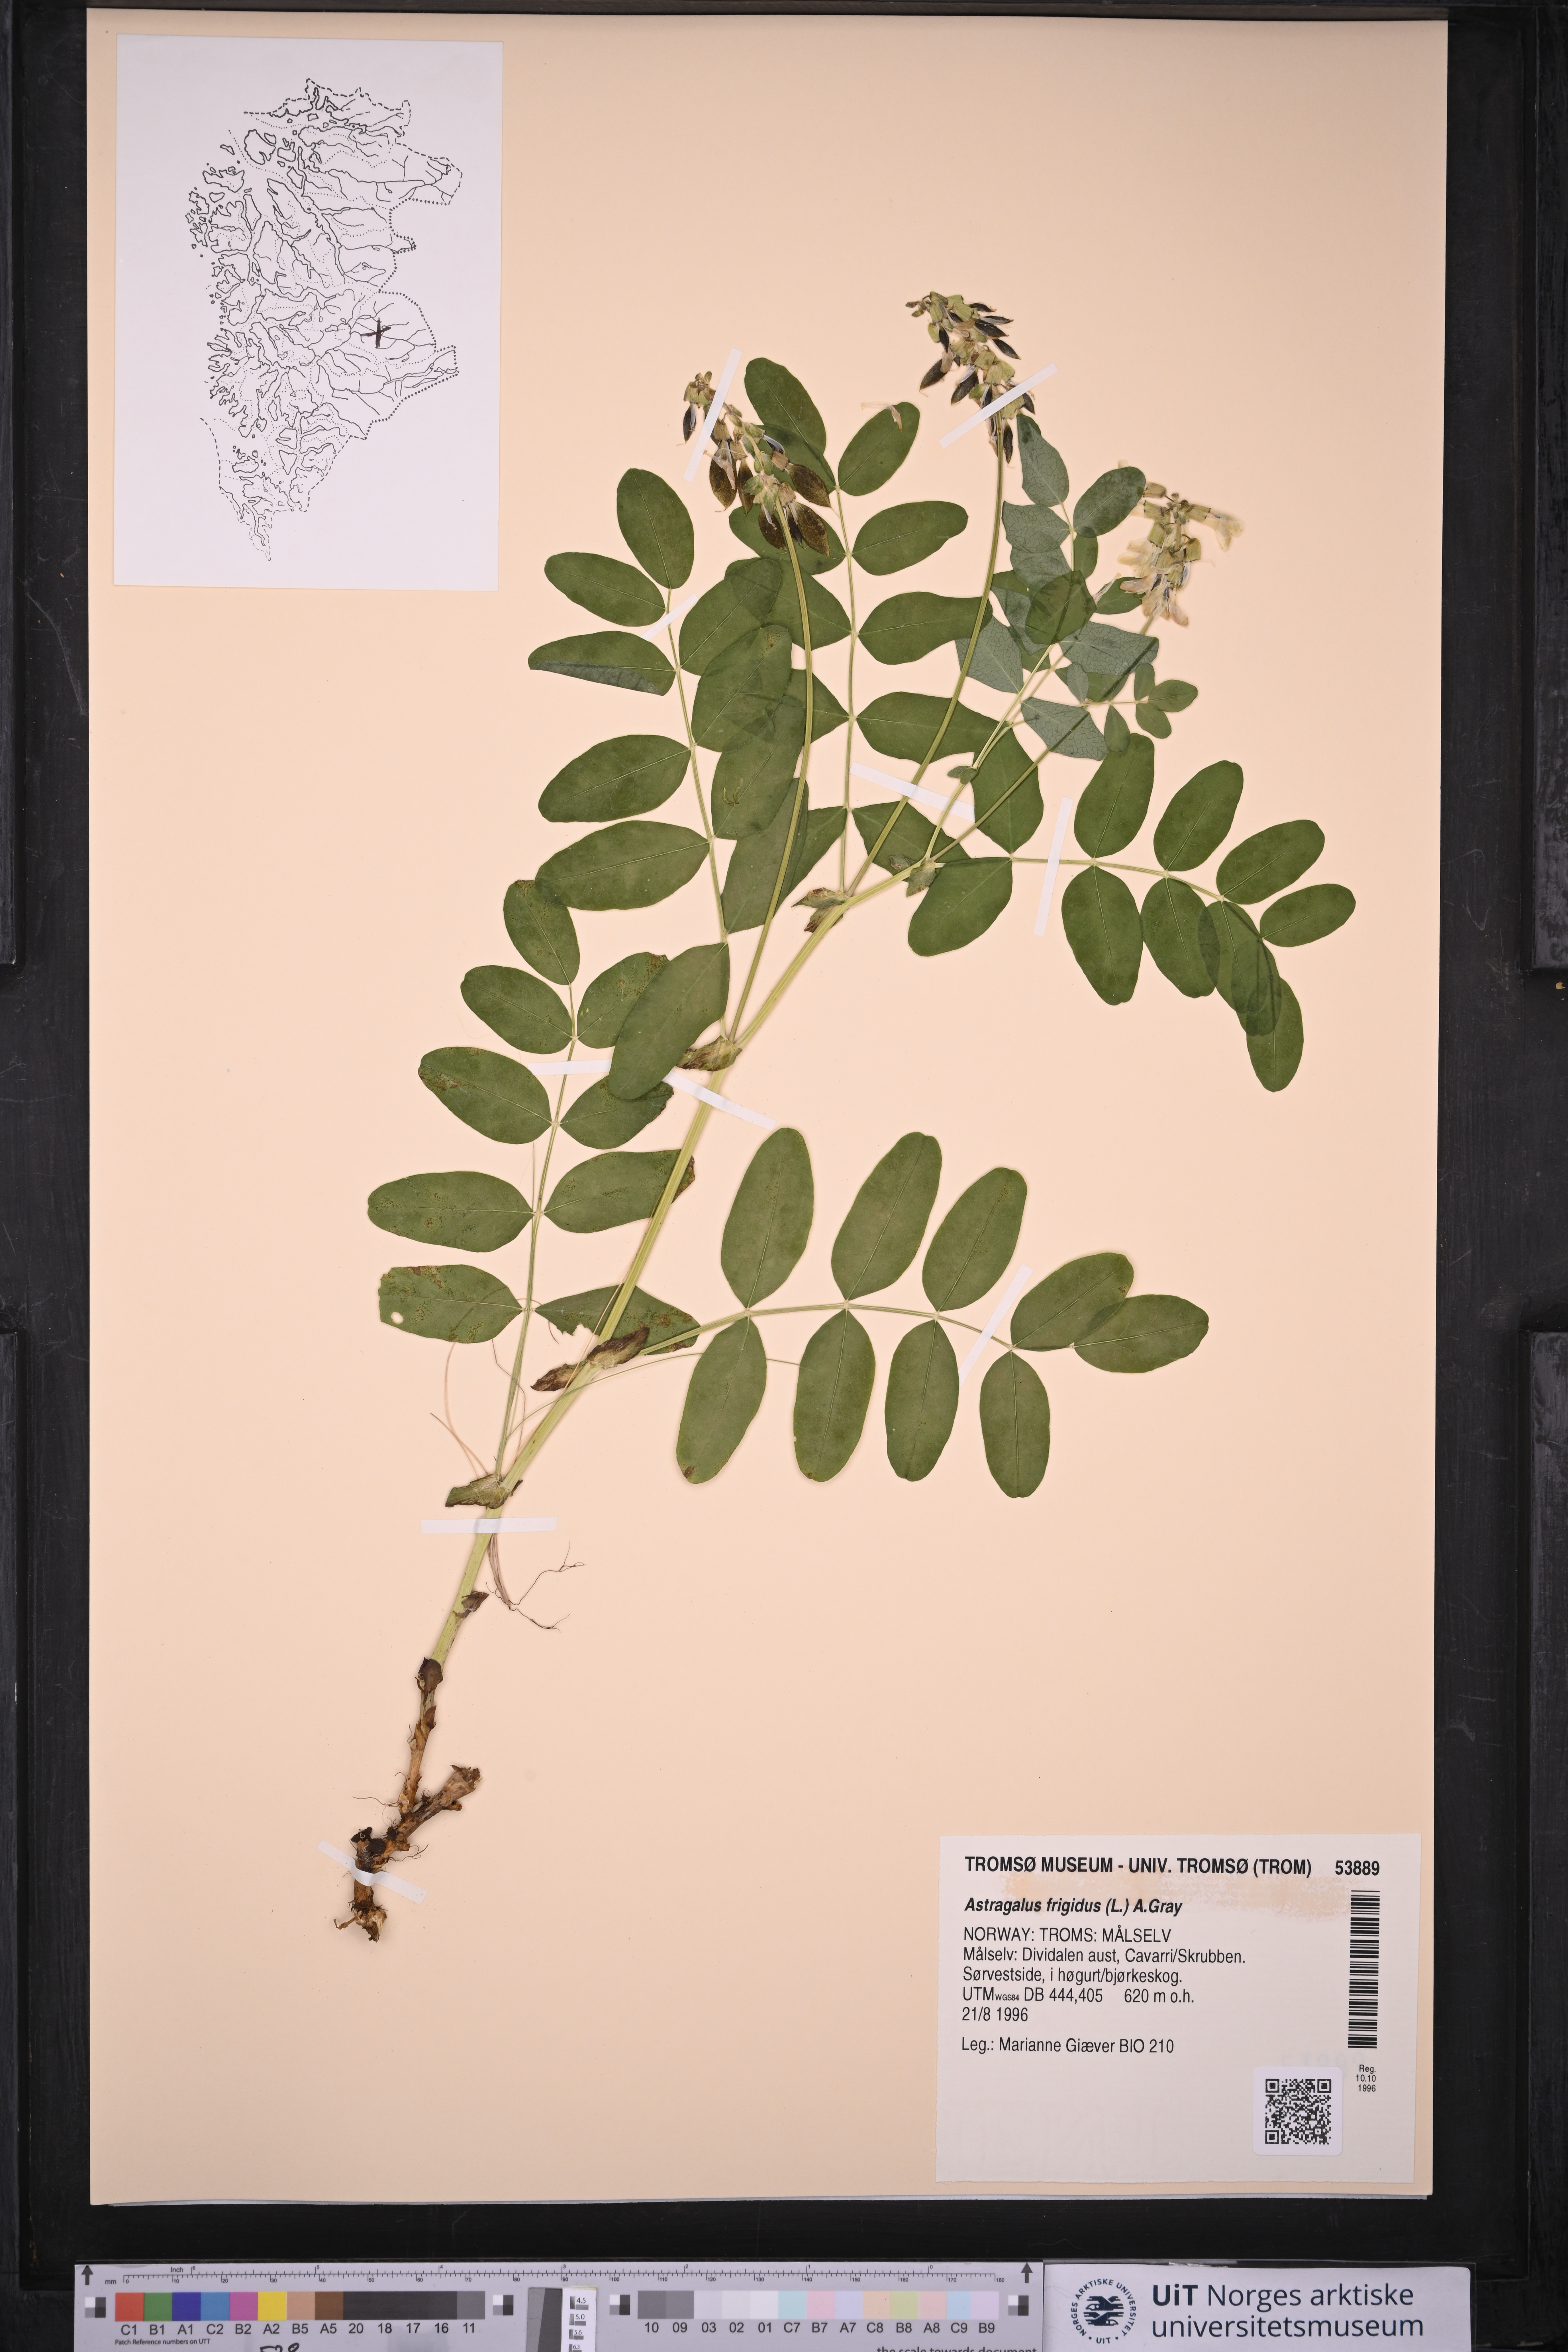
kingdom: Plantae
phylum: Tracheophyta
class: Magnoliopsida
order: Fabales
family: Fabaceae
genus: Astragalus
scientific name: Astragalus frigidus
